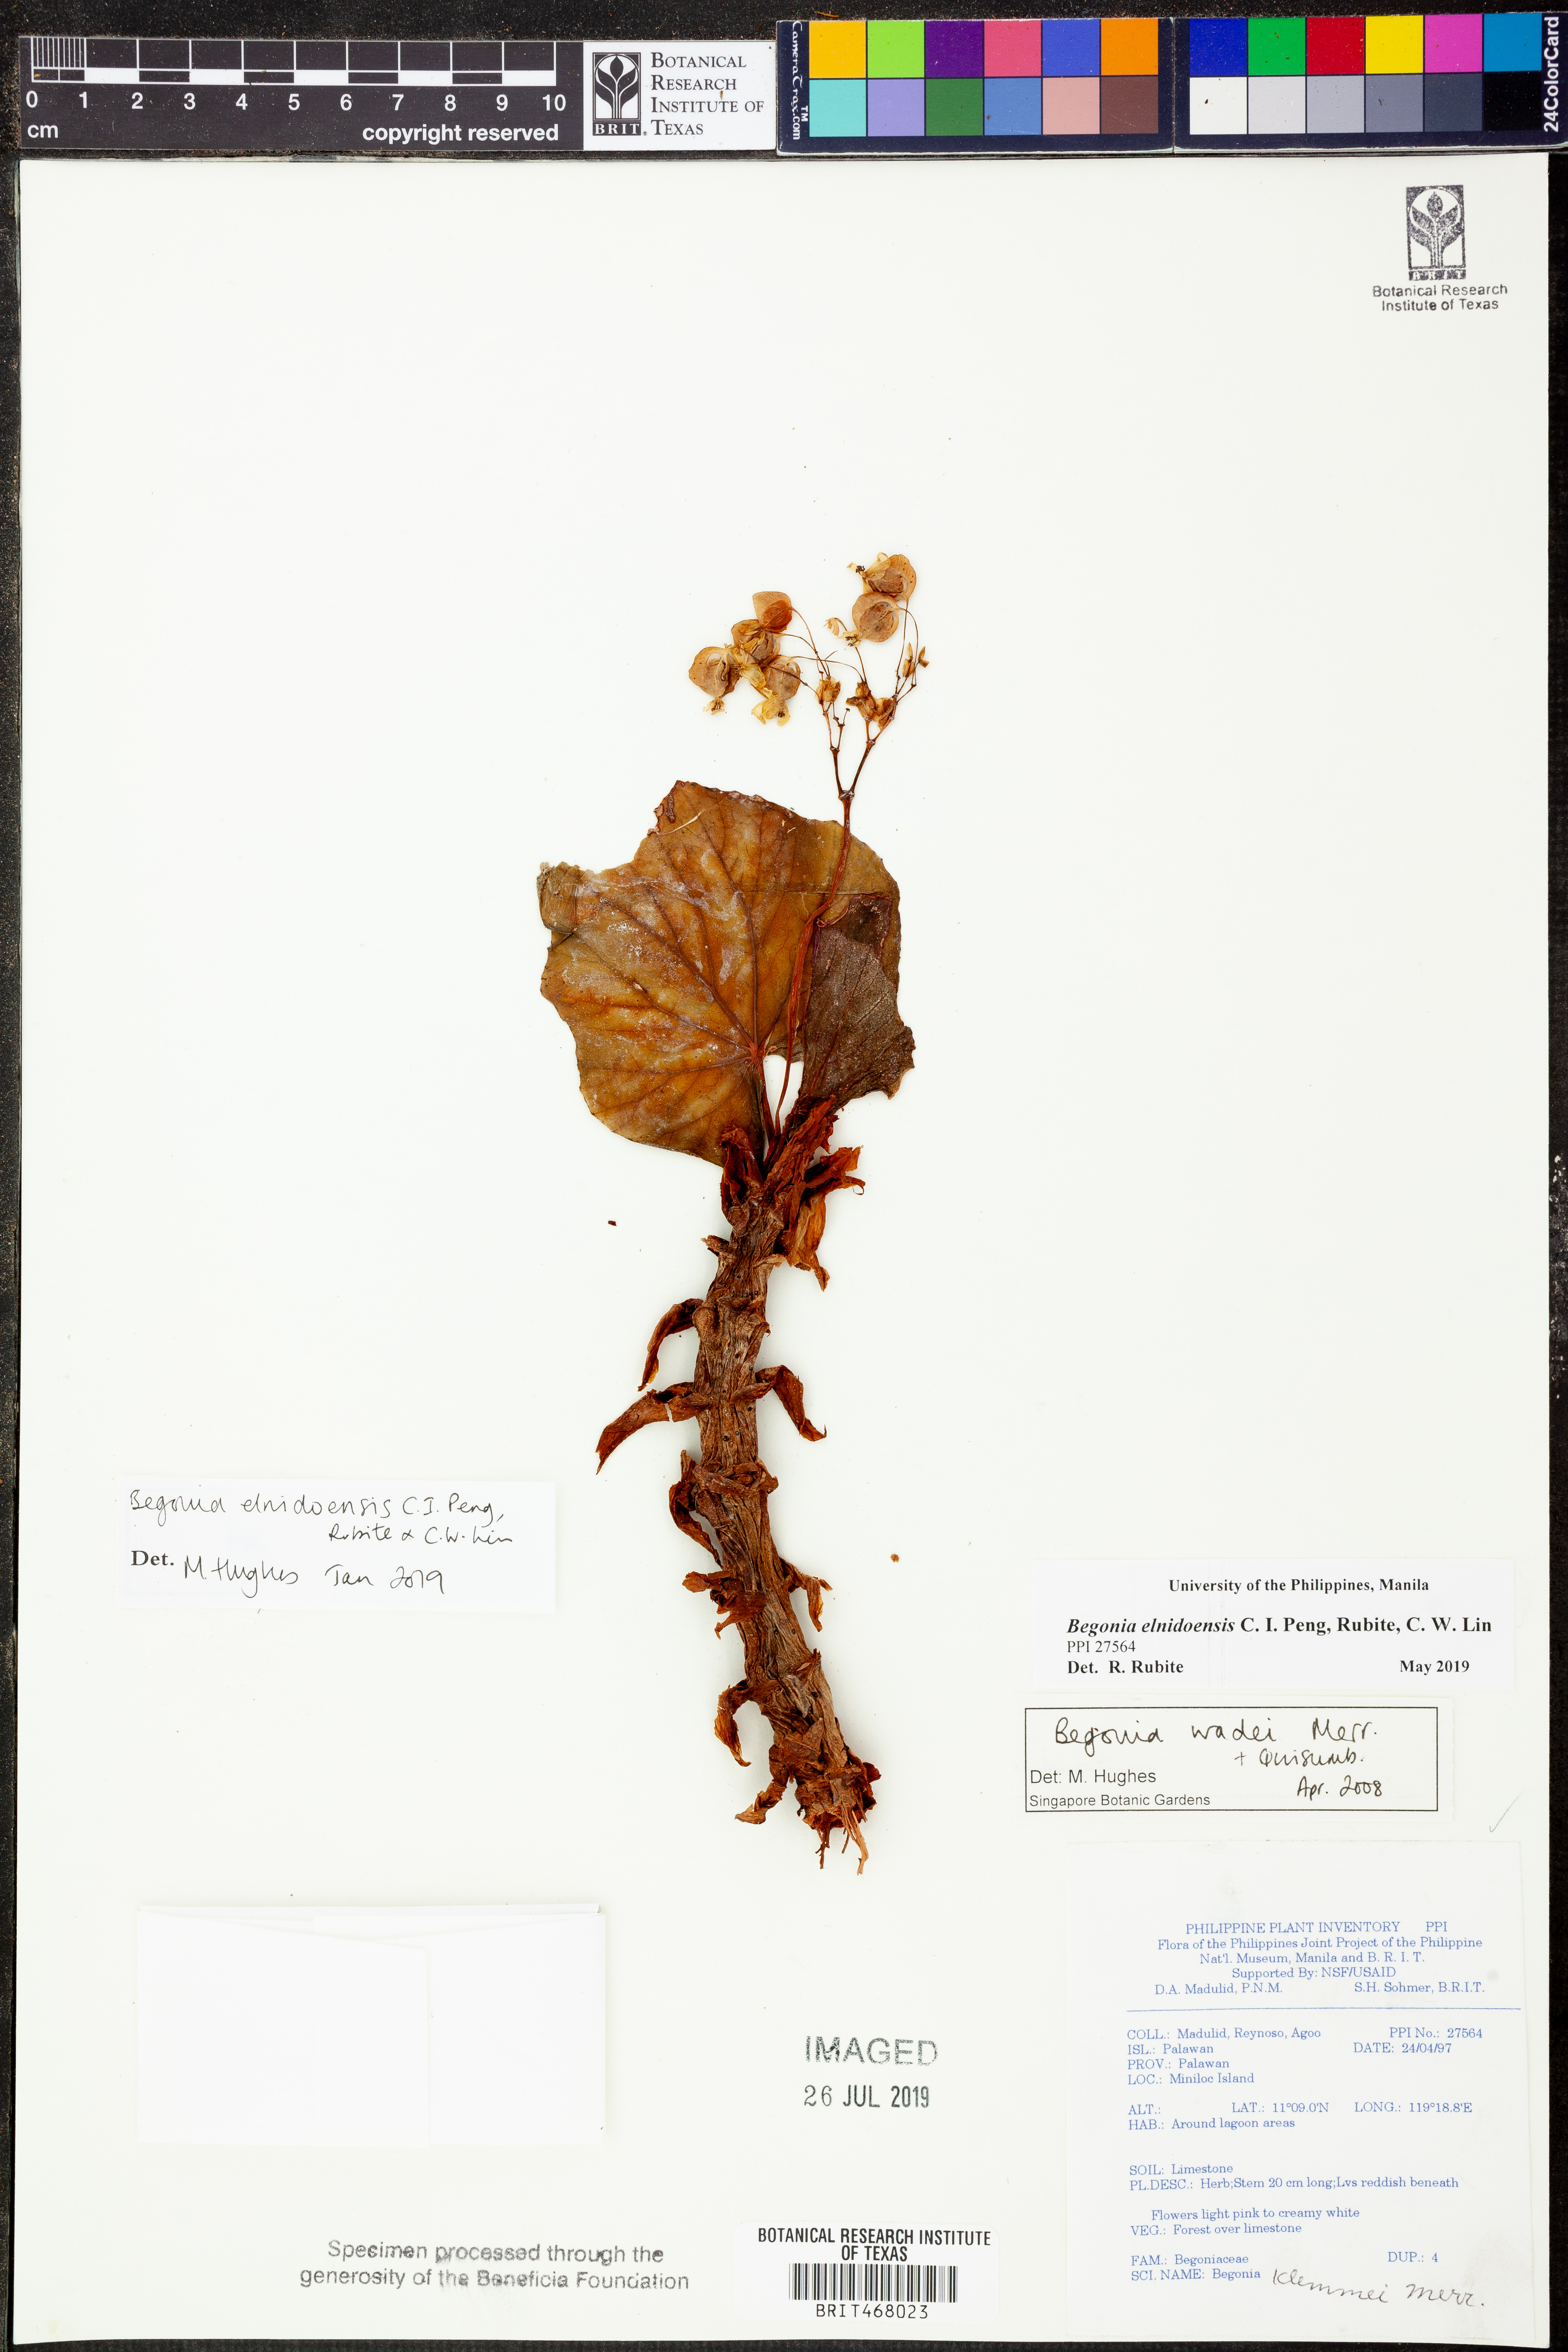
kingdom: Plantae
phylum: Tracheophyta
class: Magnoliopsida
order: Cucurbitales
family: Begoniaceae
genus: Begonia
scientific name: Begonia elnidoensis
